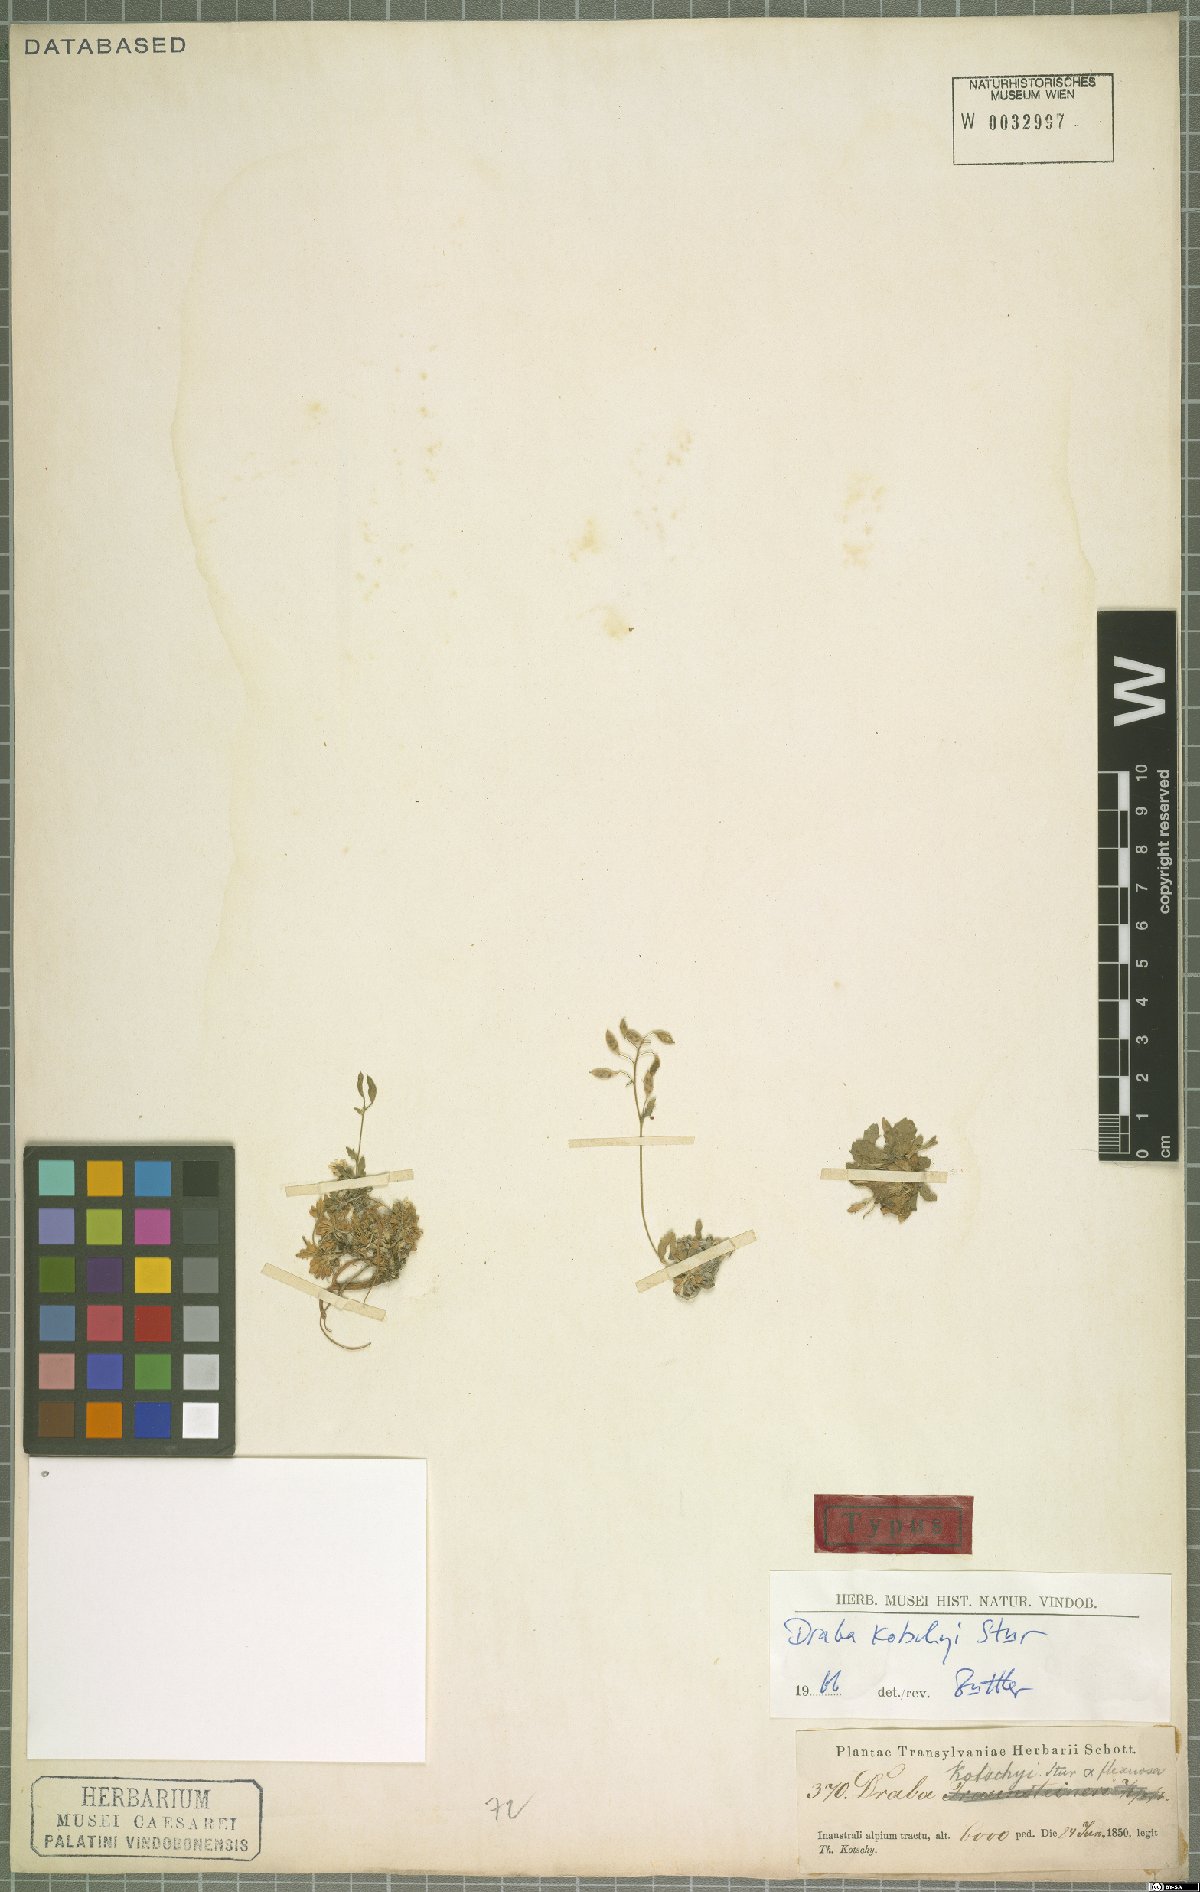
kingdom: Plantae
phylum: Tracheophyta
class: Magnoliopsida
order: Brassicales
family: Brassicaceae
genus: Draba
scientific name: Draba kotschyi
